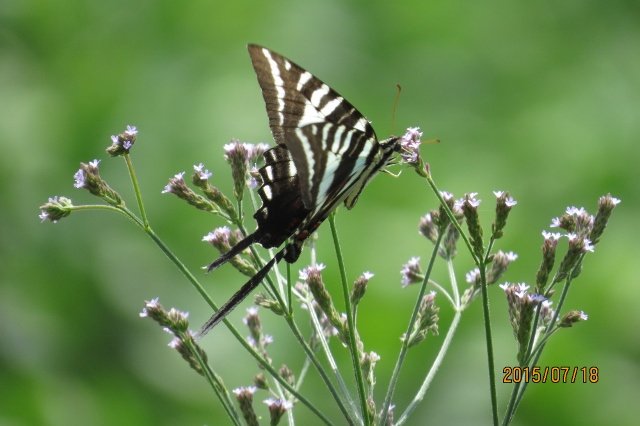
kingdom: Animalia
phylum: Arthropoda
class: Insecta
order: Lepidoptera
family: Papilionidae
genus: Protographium
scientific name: Protographium marcellus
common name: Zebra Swallowtail
